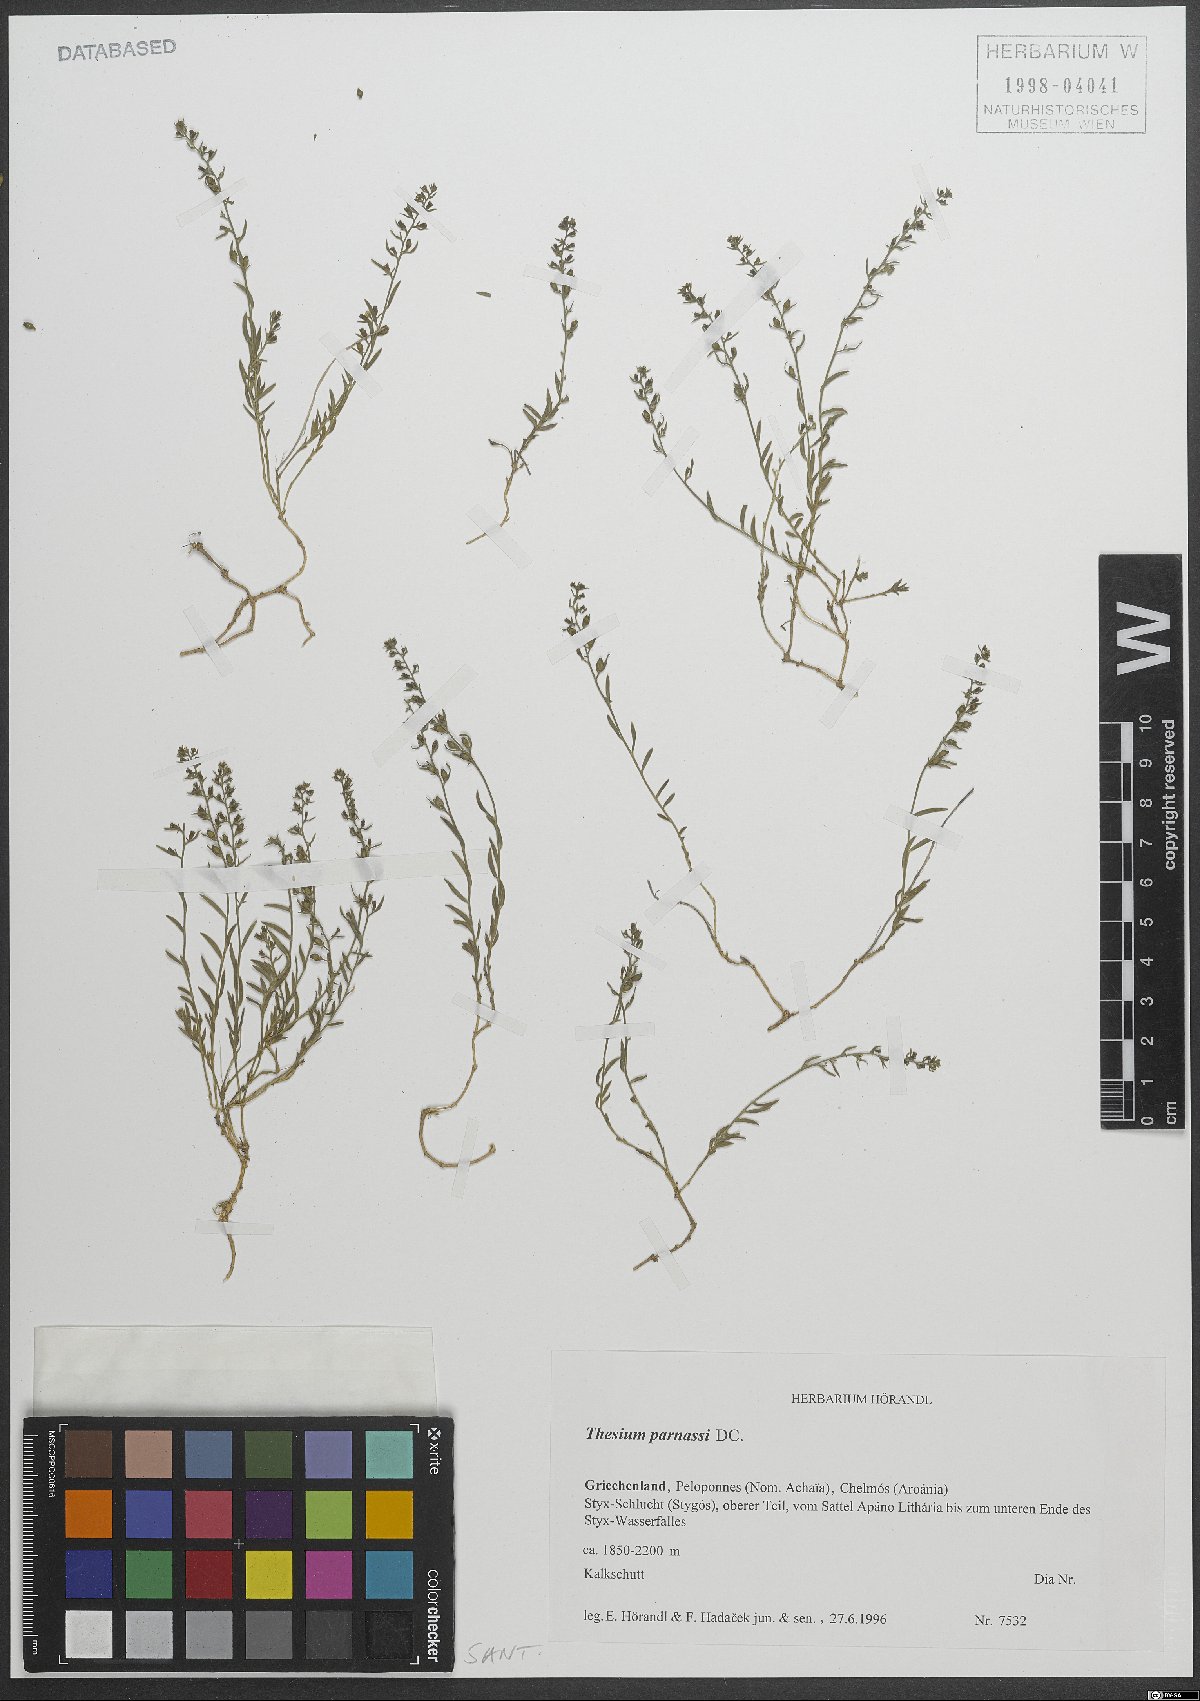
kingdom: Plantae
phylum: Tracheophyta
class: Magnoliopsida
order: Santalales
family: Thesiaceae
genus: Thesium
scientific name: Thesium parnassi
